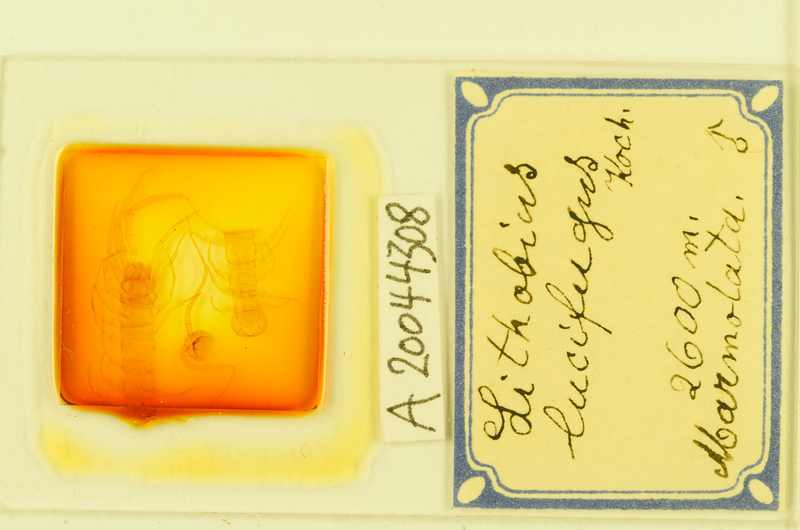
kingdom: Animalia
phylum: Arthropoda
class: Chilopoda
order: Lithobiomorpha
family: Lithobiidae
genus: Lithobius
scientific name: Lithobius lucifugus
